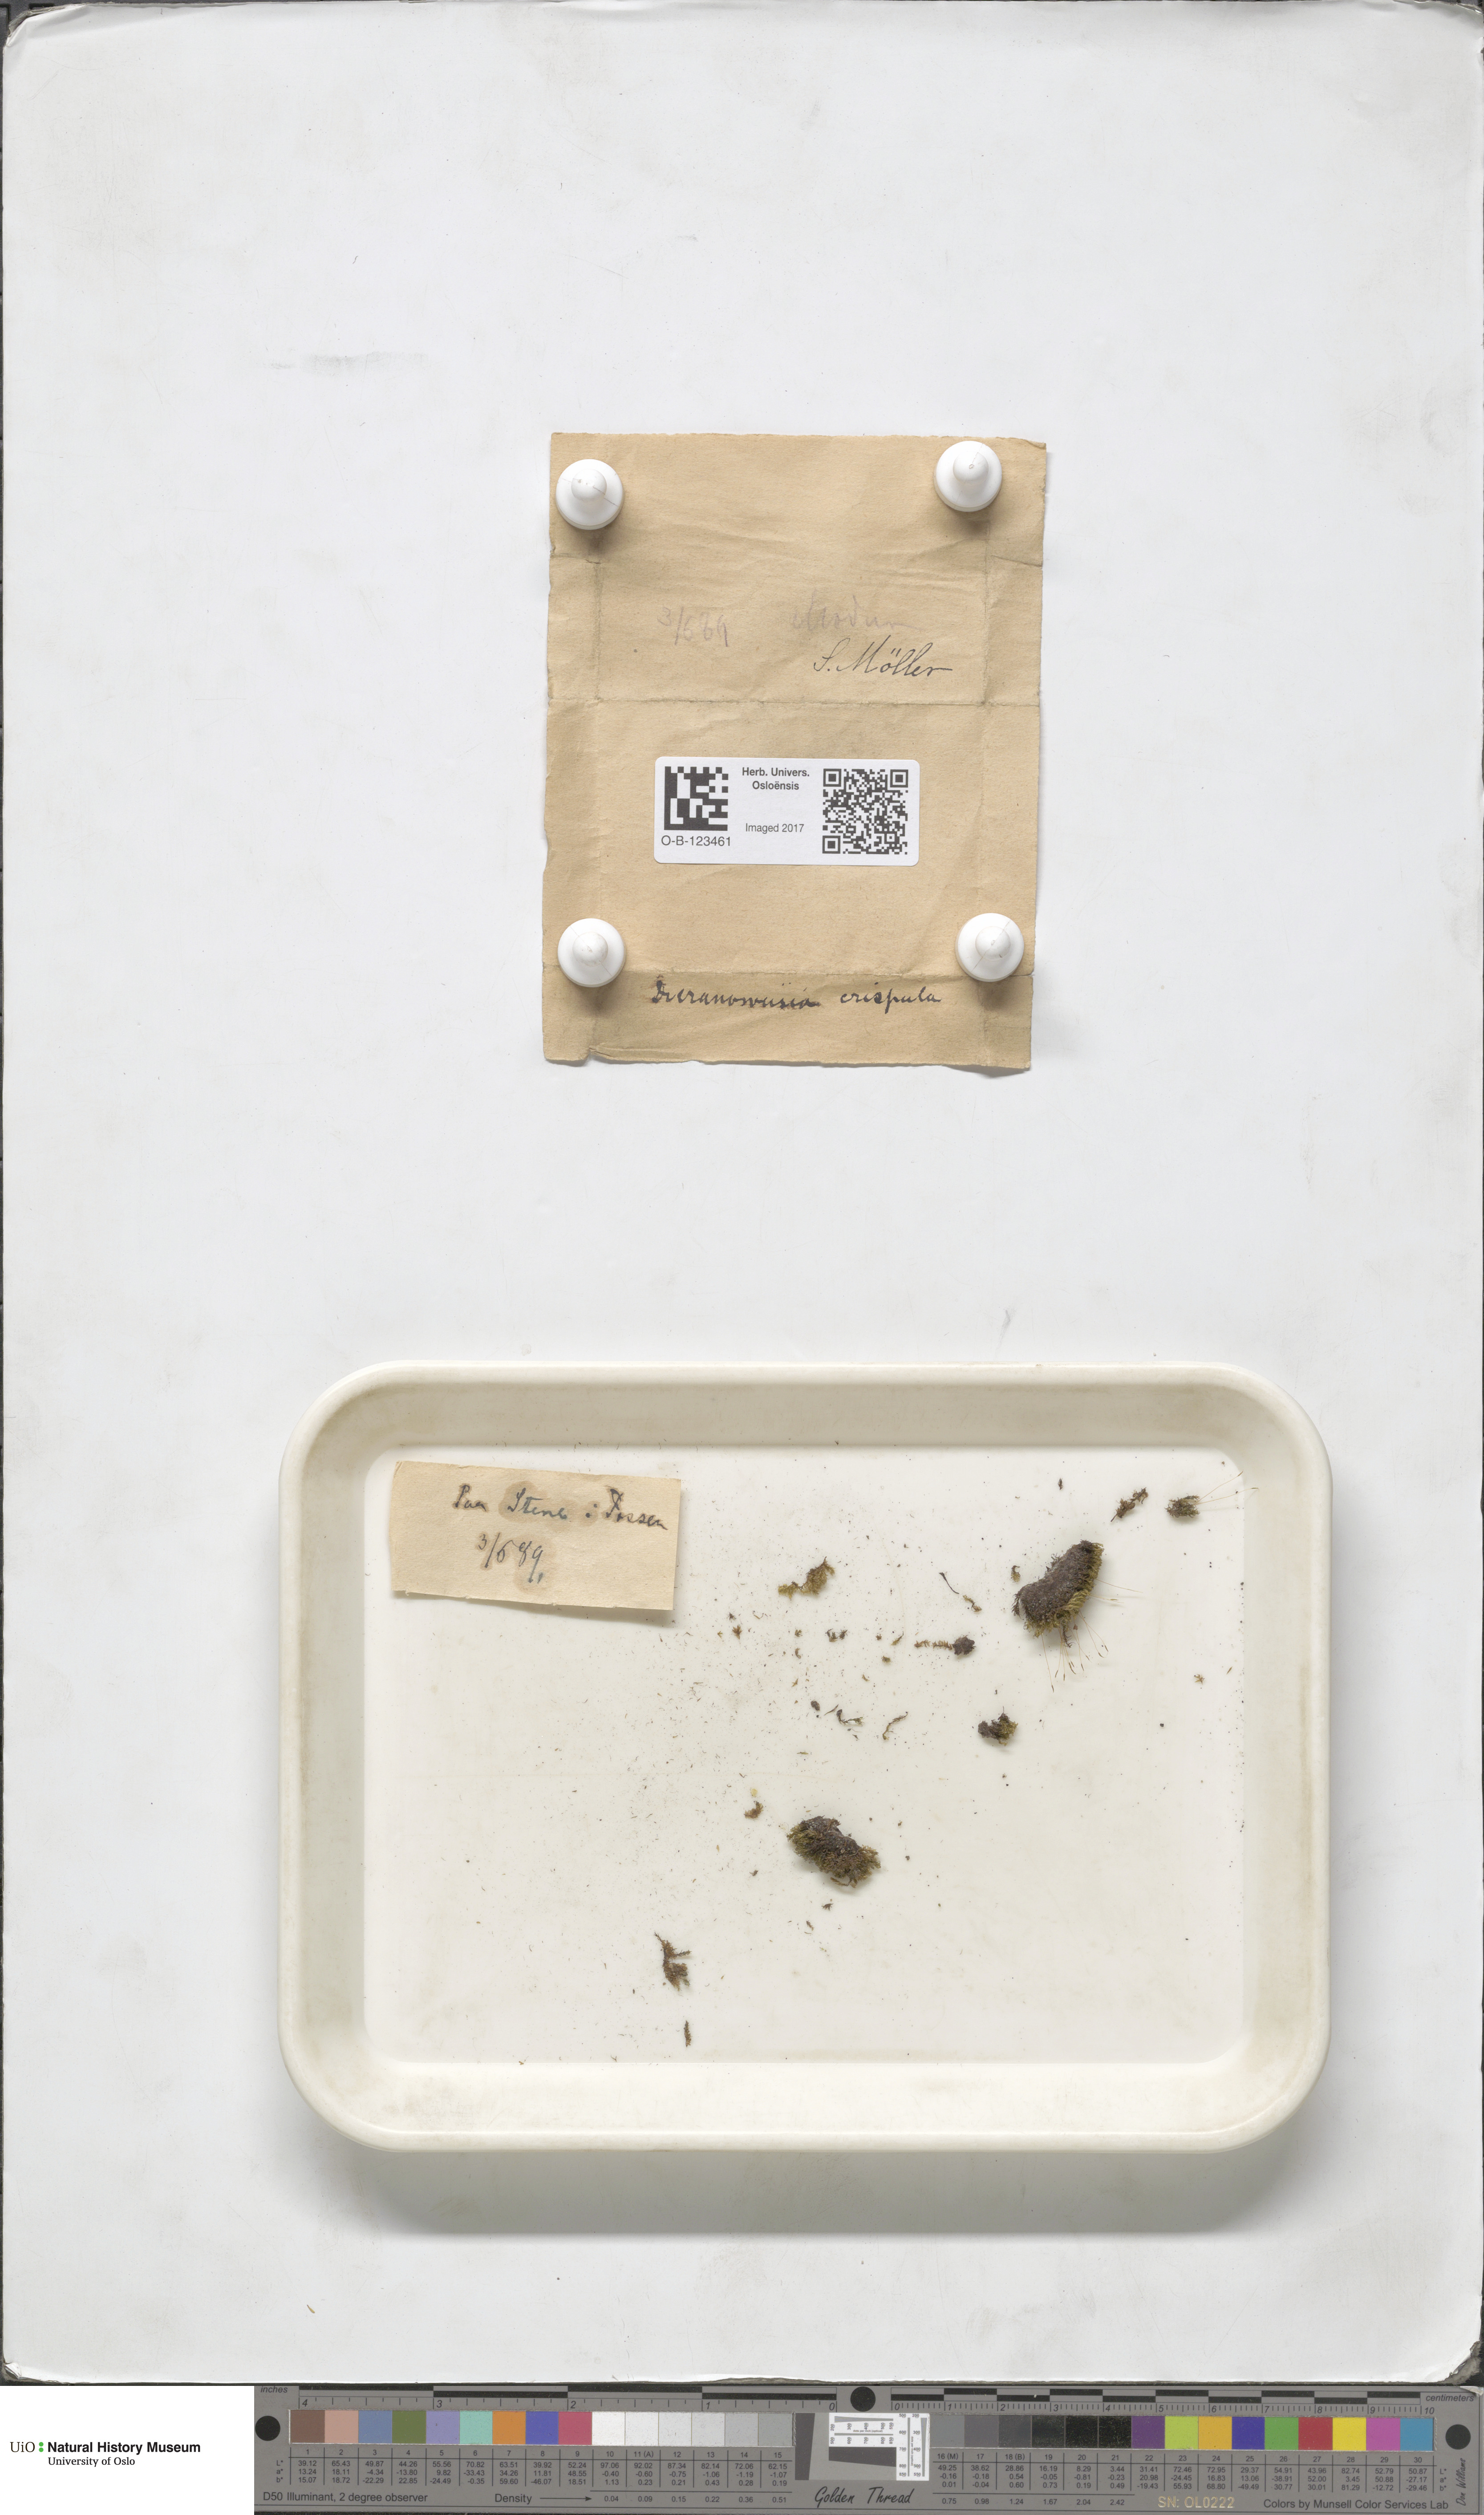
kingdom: Plantae
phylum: Bryophyta
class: Bryopsida
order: Scouleriales
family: Hymenolomataceae
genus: Hymenoloma
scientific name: Hymenoloma crispulum
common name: Mountain pincushion
